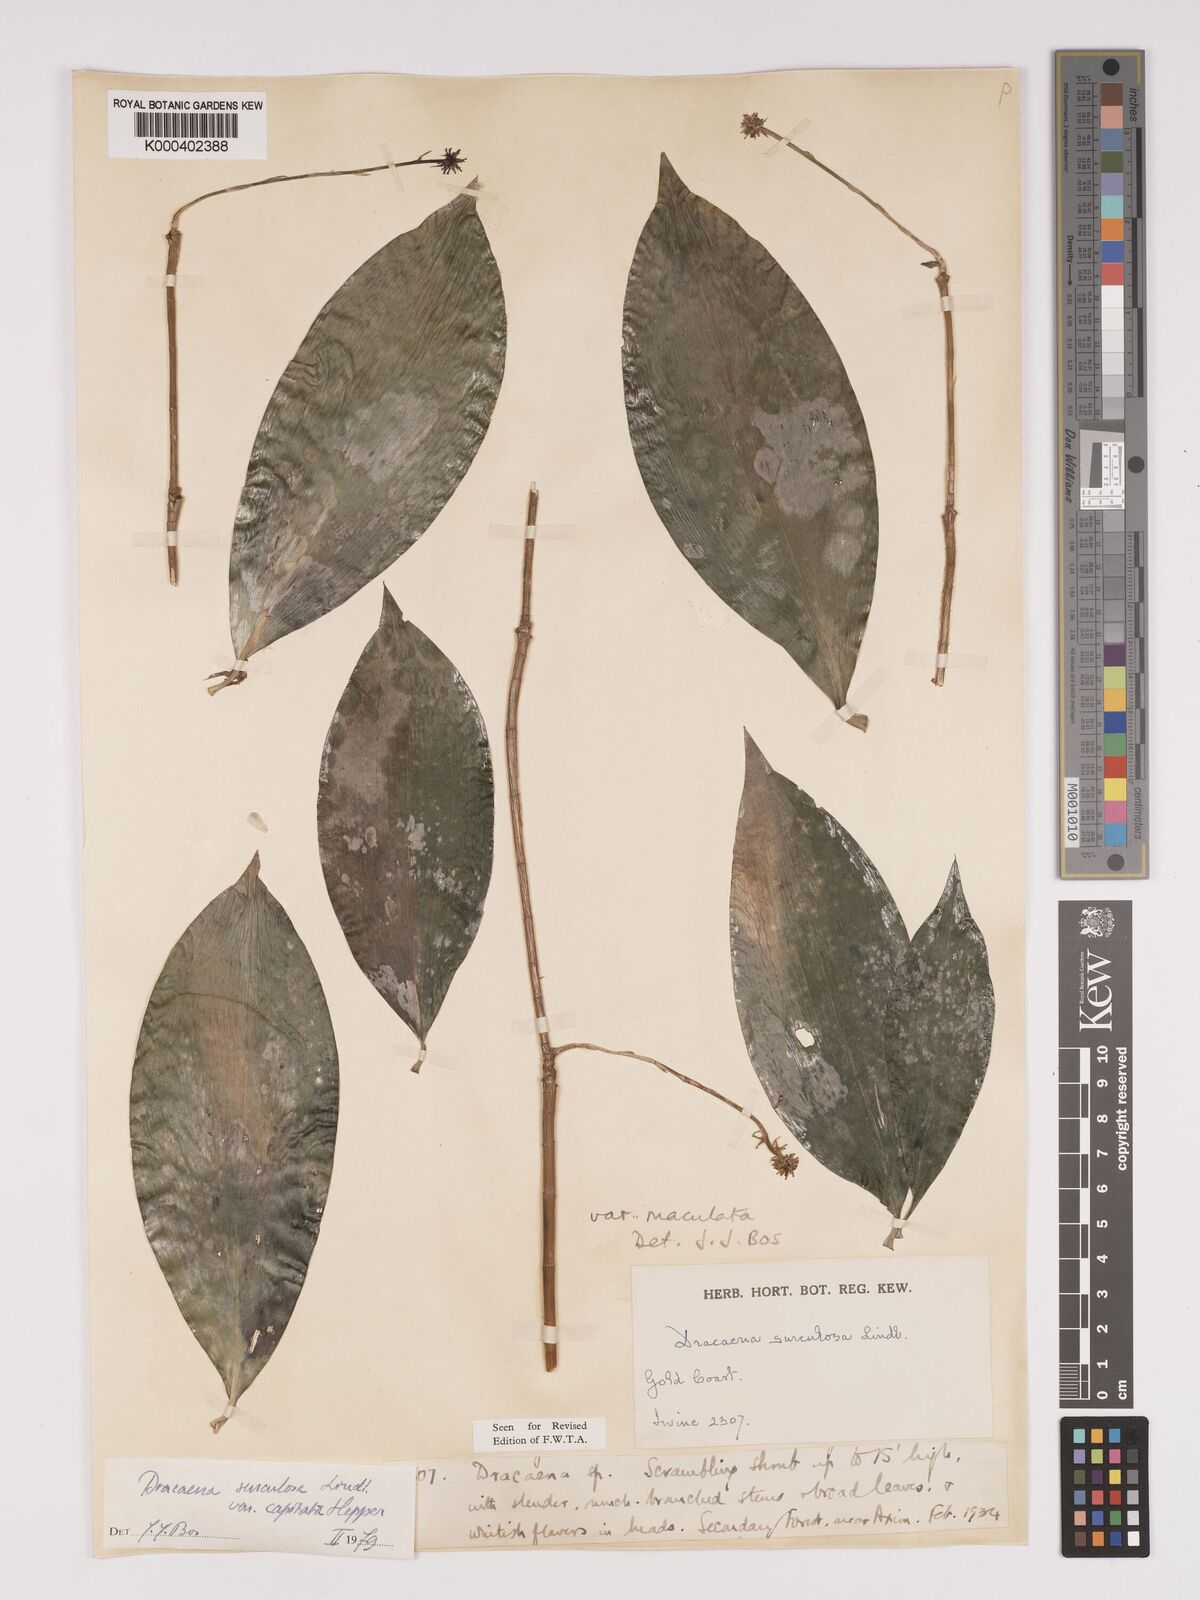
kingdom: Plantae
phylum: Tracheophyta
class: Liliopsida
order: Asparagales
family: Asparagaceae
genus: Dracaena
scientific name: Dracaena surculosa
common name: Spotted dracaena
